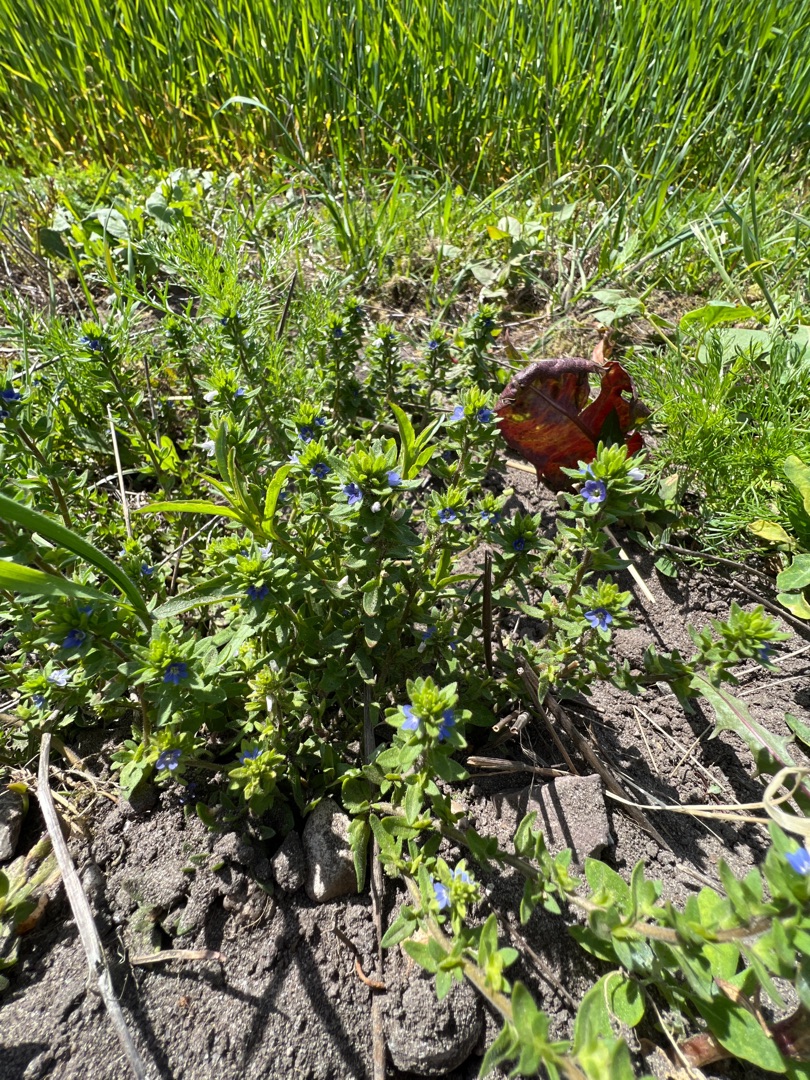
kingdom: Plantae
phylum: Tracheophyta
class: Magnoliopsida
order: Lamiales
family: Plantaginaceae
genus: Veronica
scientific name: Veronica arvensis
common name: Mark-ærenpris
